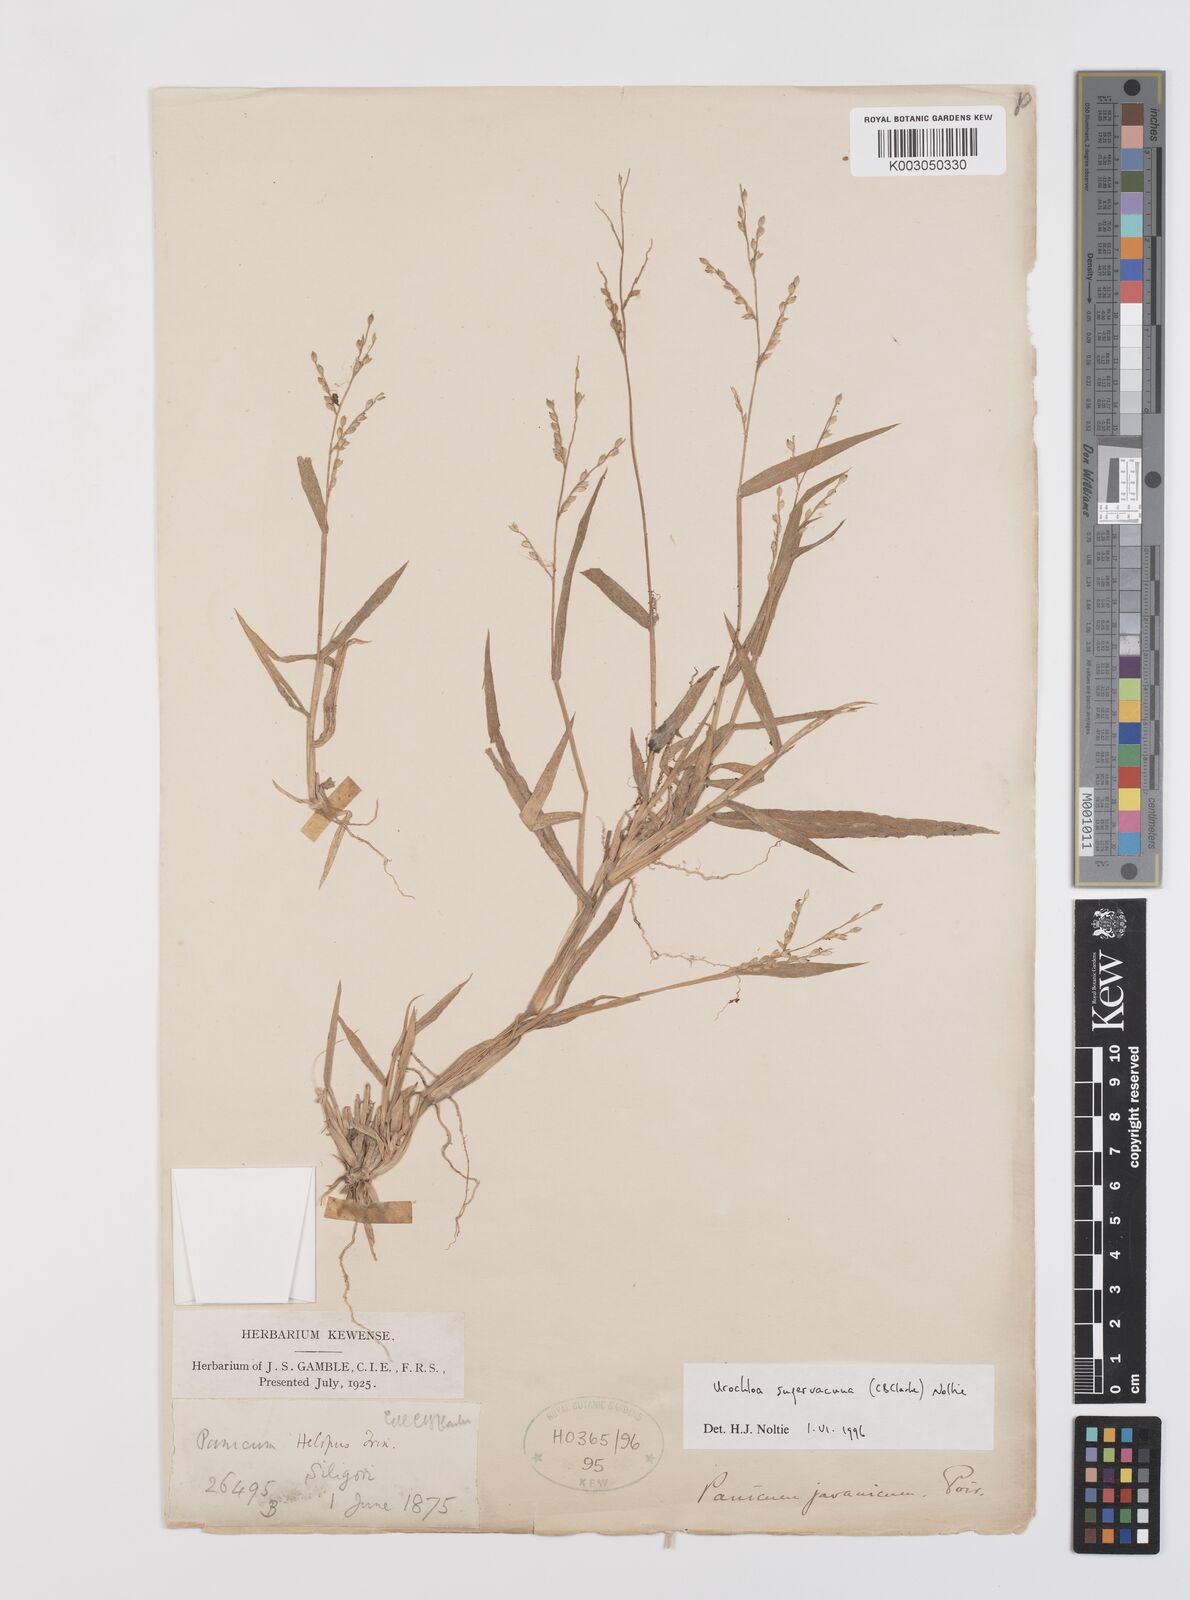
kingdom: Plantae
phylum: Tracheophyta
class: Liliopsida
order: Poales
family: Poaceae
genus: Urochloa
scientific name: Urochloa ramosa
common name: Browntop millet
